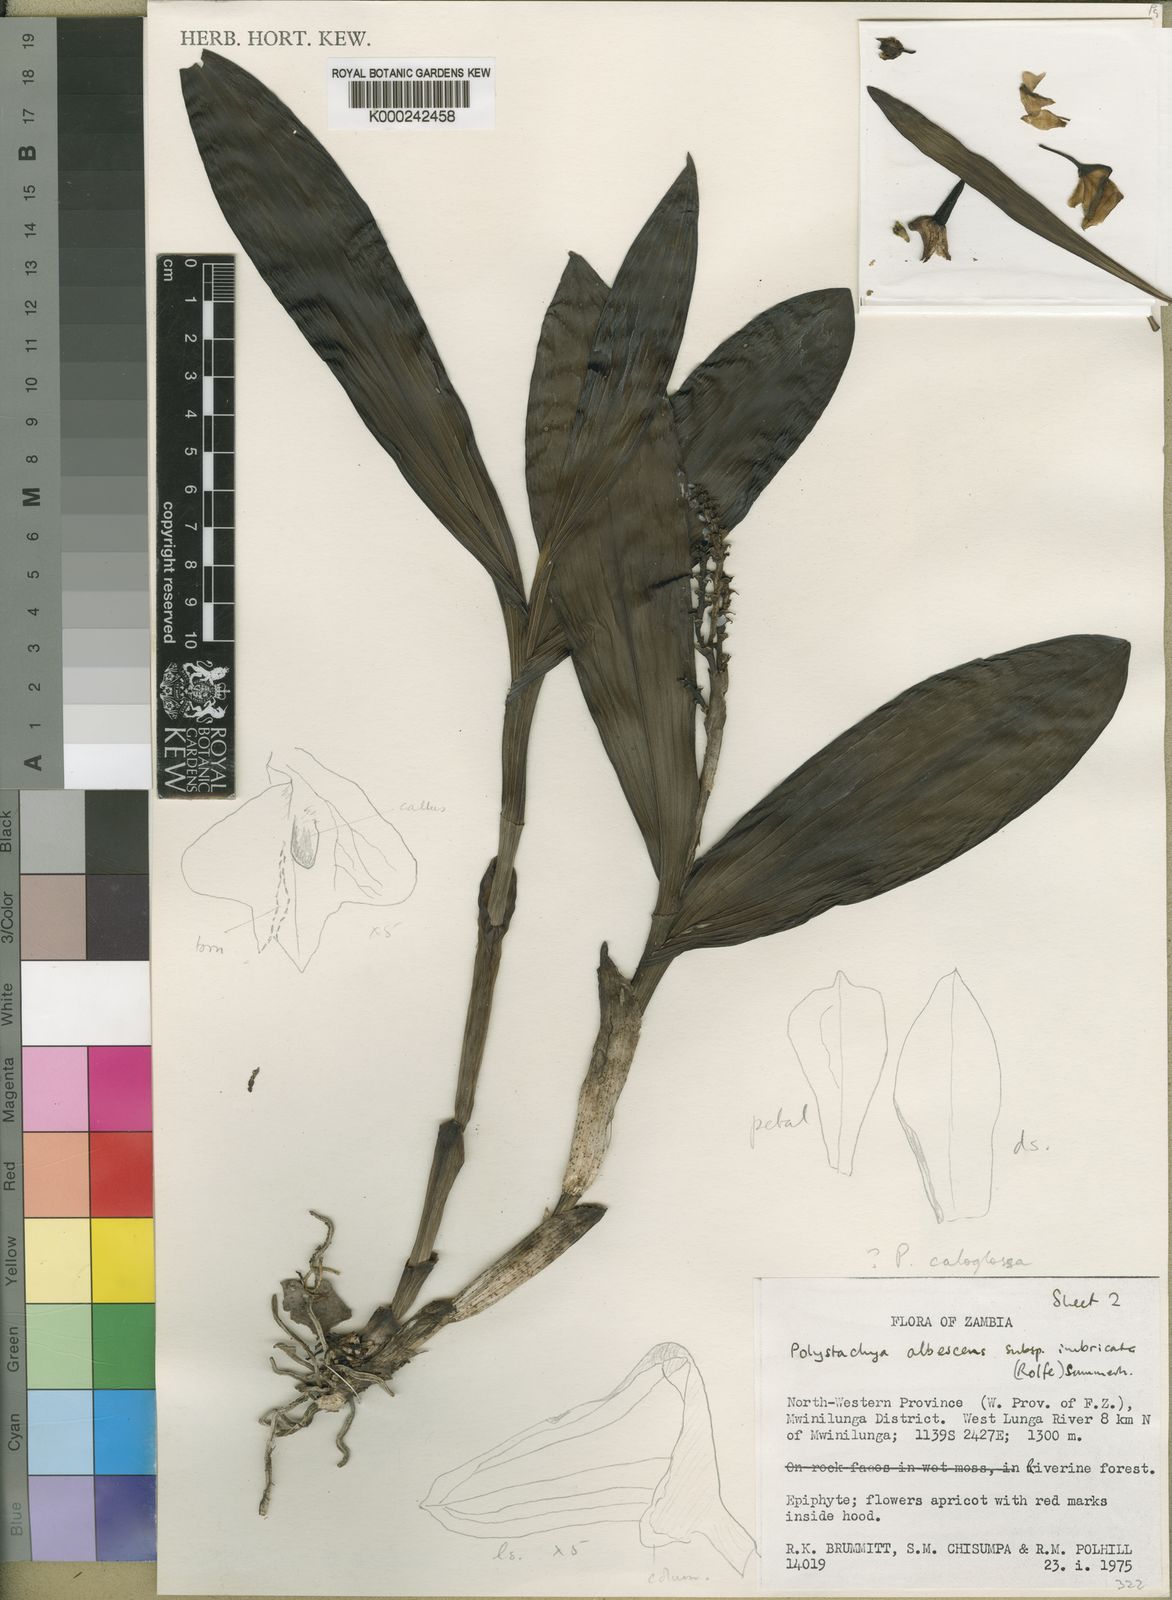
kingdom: Plantae
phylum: Tracheophyta
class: Liliopsida
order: Asparagales
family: Orchidaceae
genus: Polystachya
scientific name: Polystachya armeniaca
